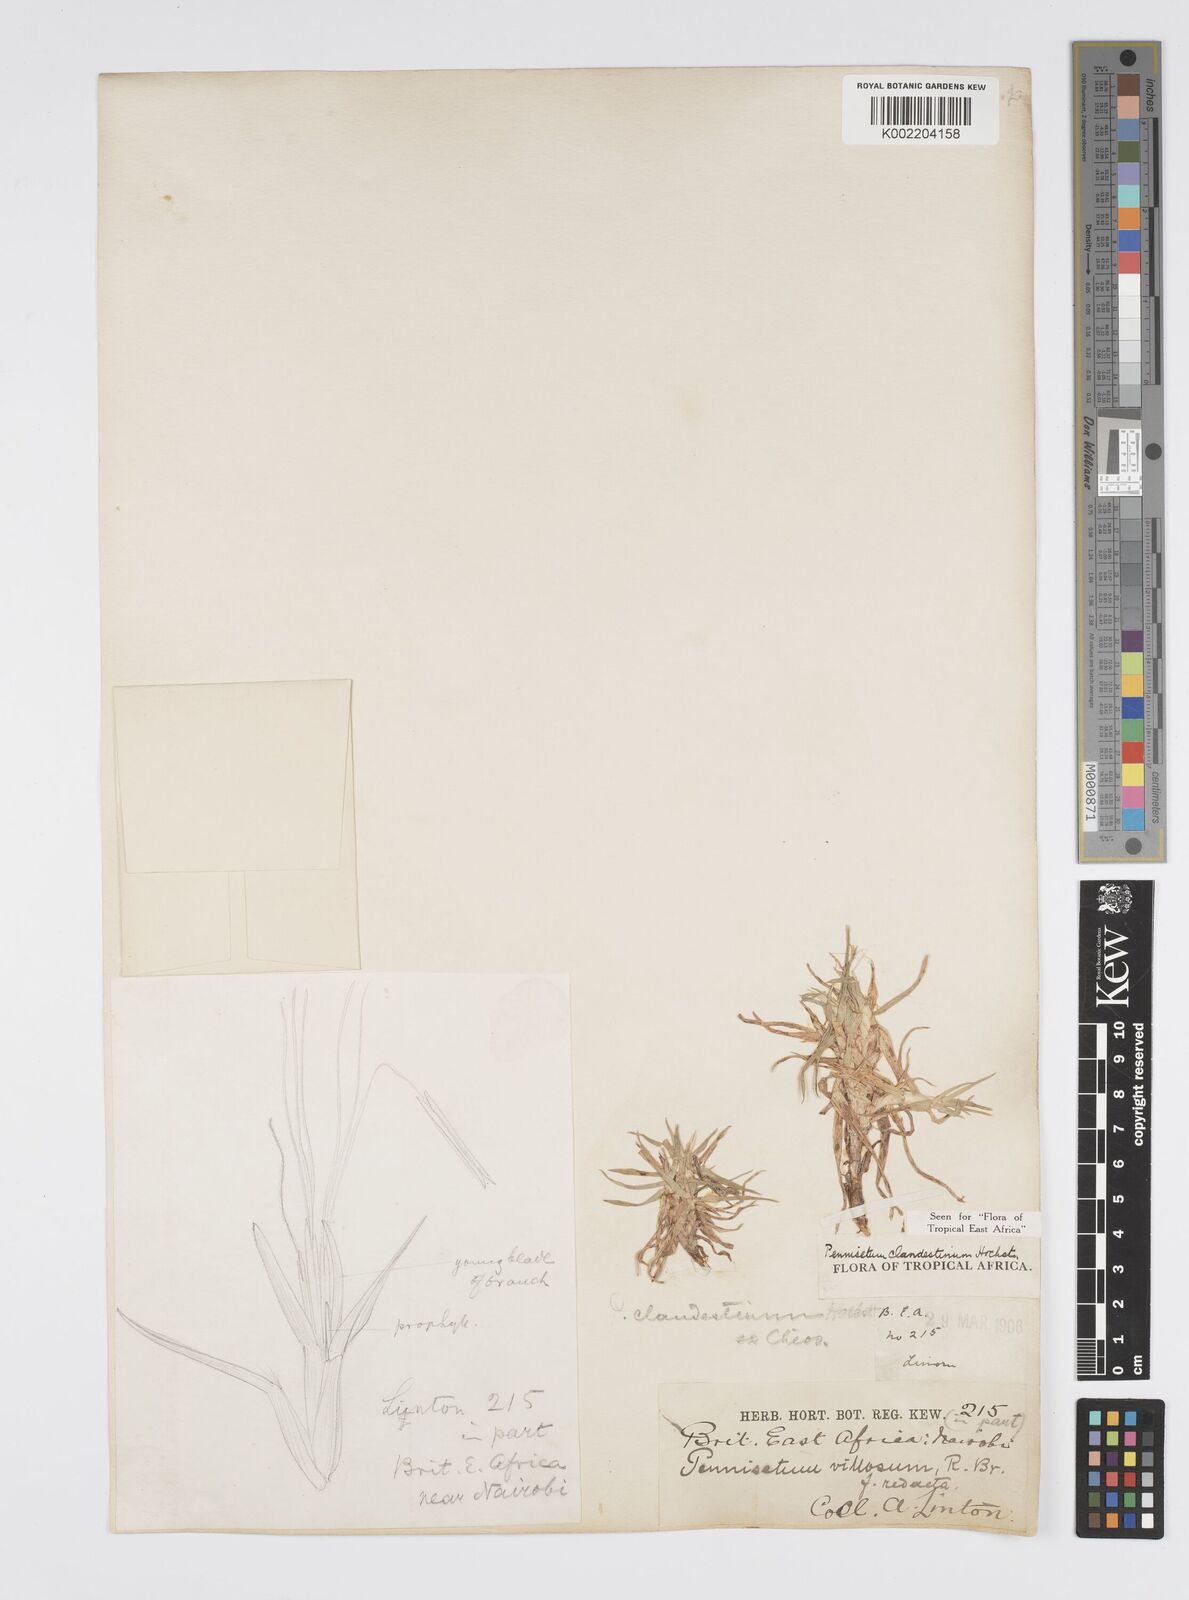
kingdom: Plantae
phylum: Tracheophyta
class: Liliopsida
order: Poales
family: Poaceae
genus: Cenchrus
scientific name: Cenchrus clandestinus
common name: Kikuyugrass
